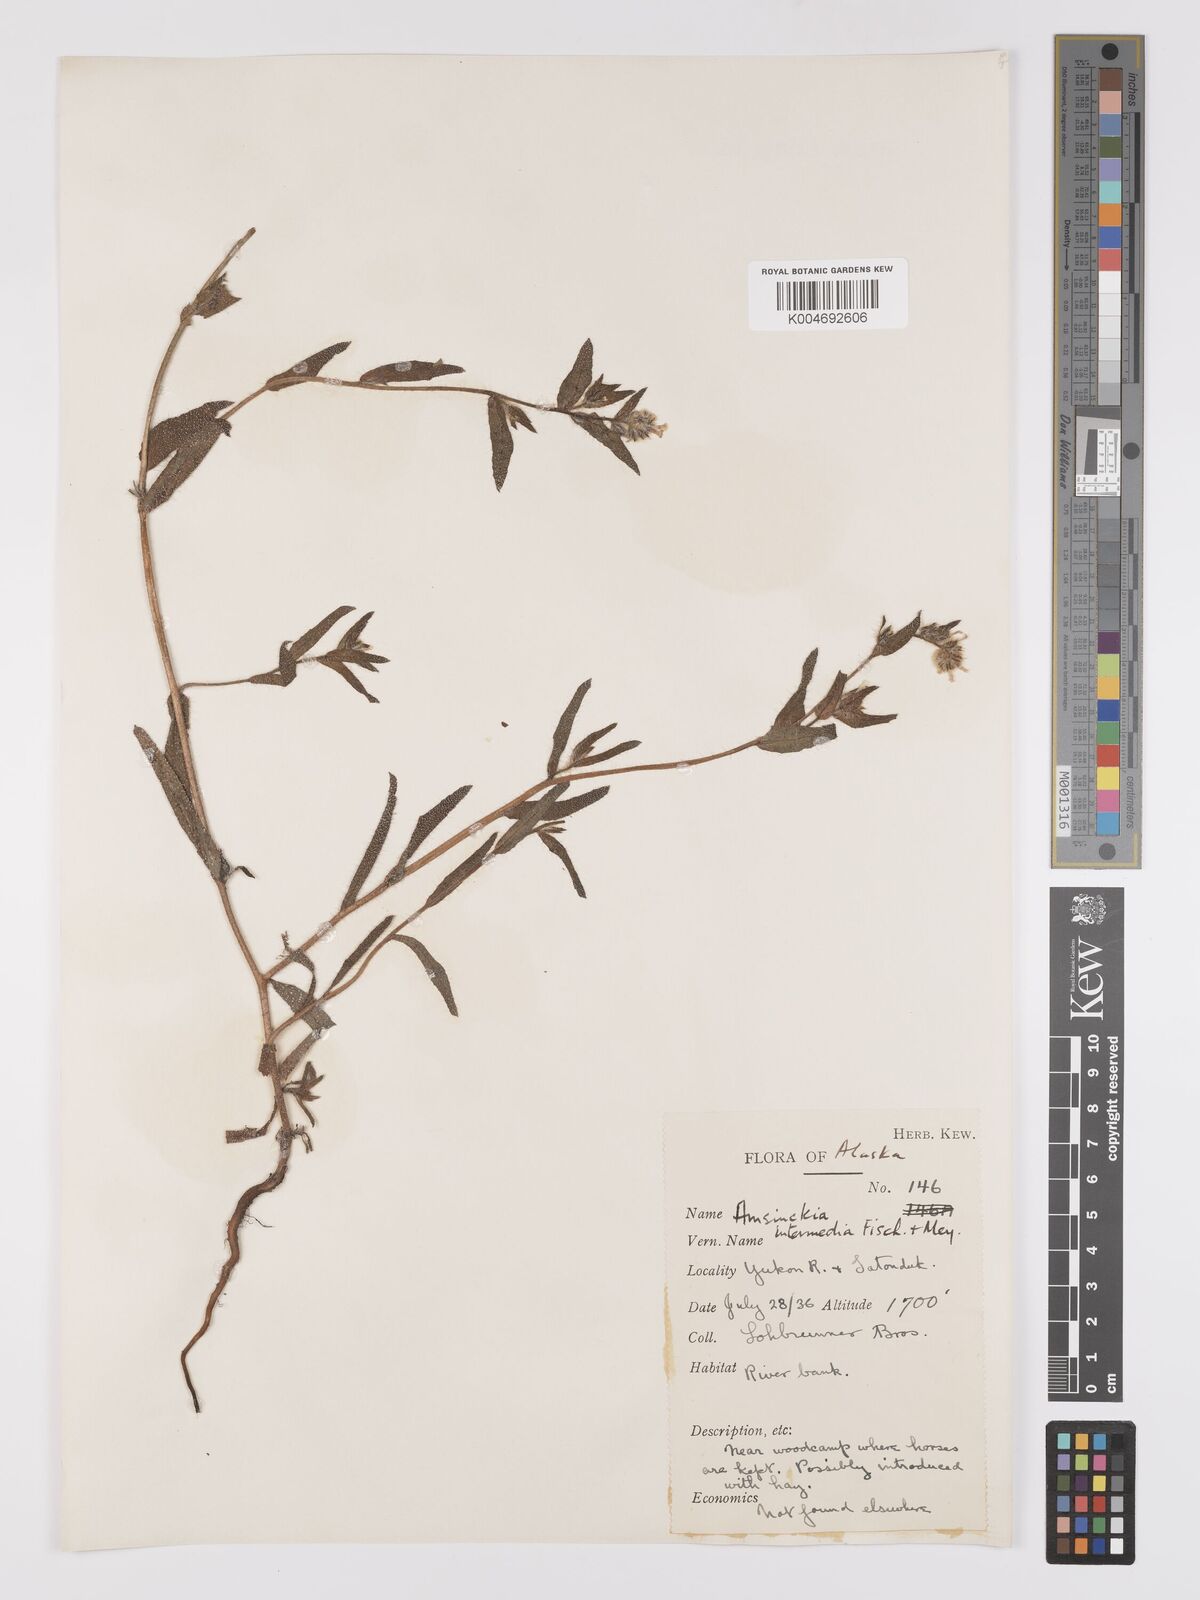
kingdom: Plantae
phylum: Tracheophyta
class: Magnoliopsida
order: Boraginales
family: Boraginaceae
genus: Amsinckia
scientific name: Amsinckia menziesii
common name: Menzies' fiddleneck
